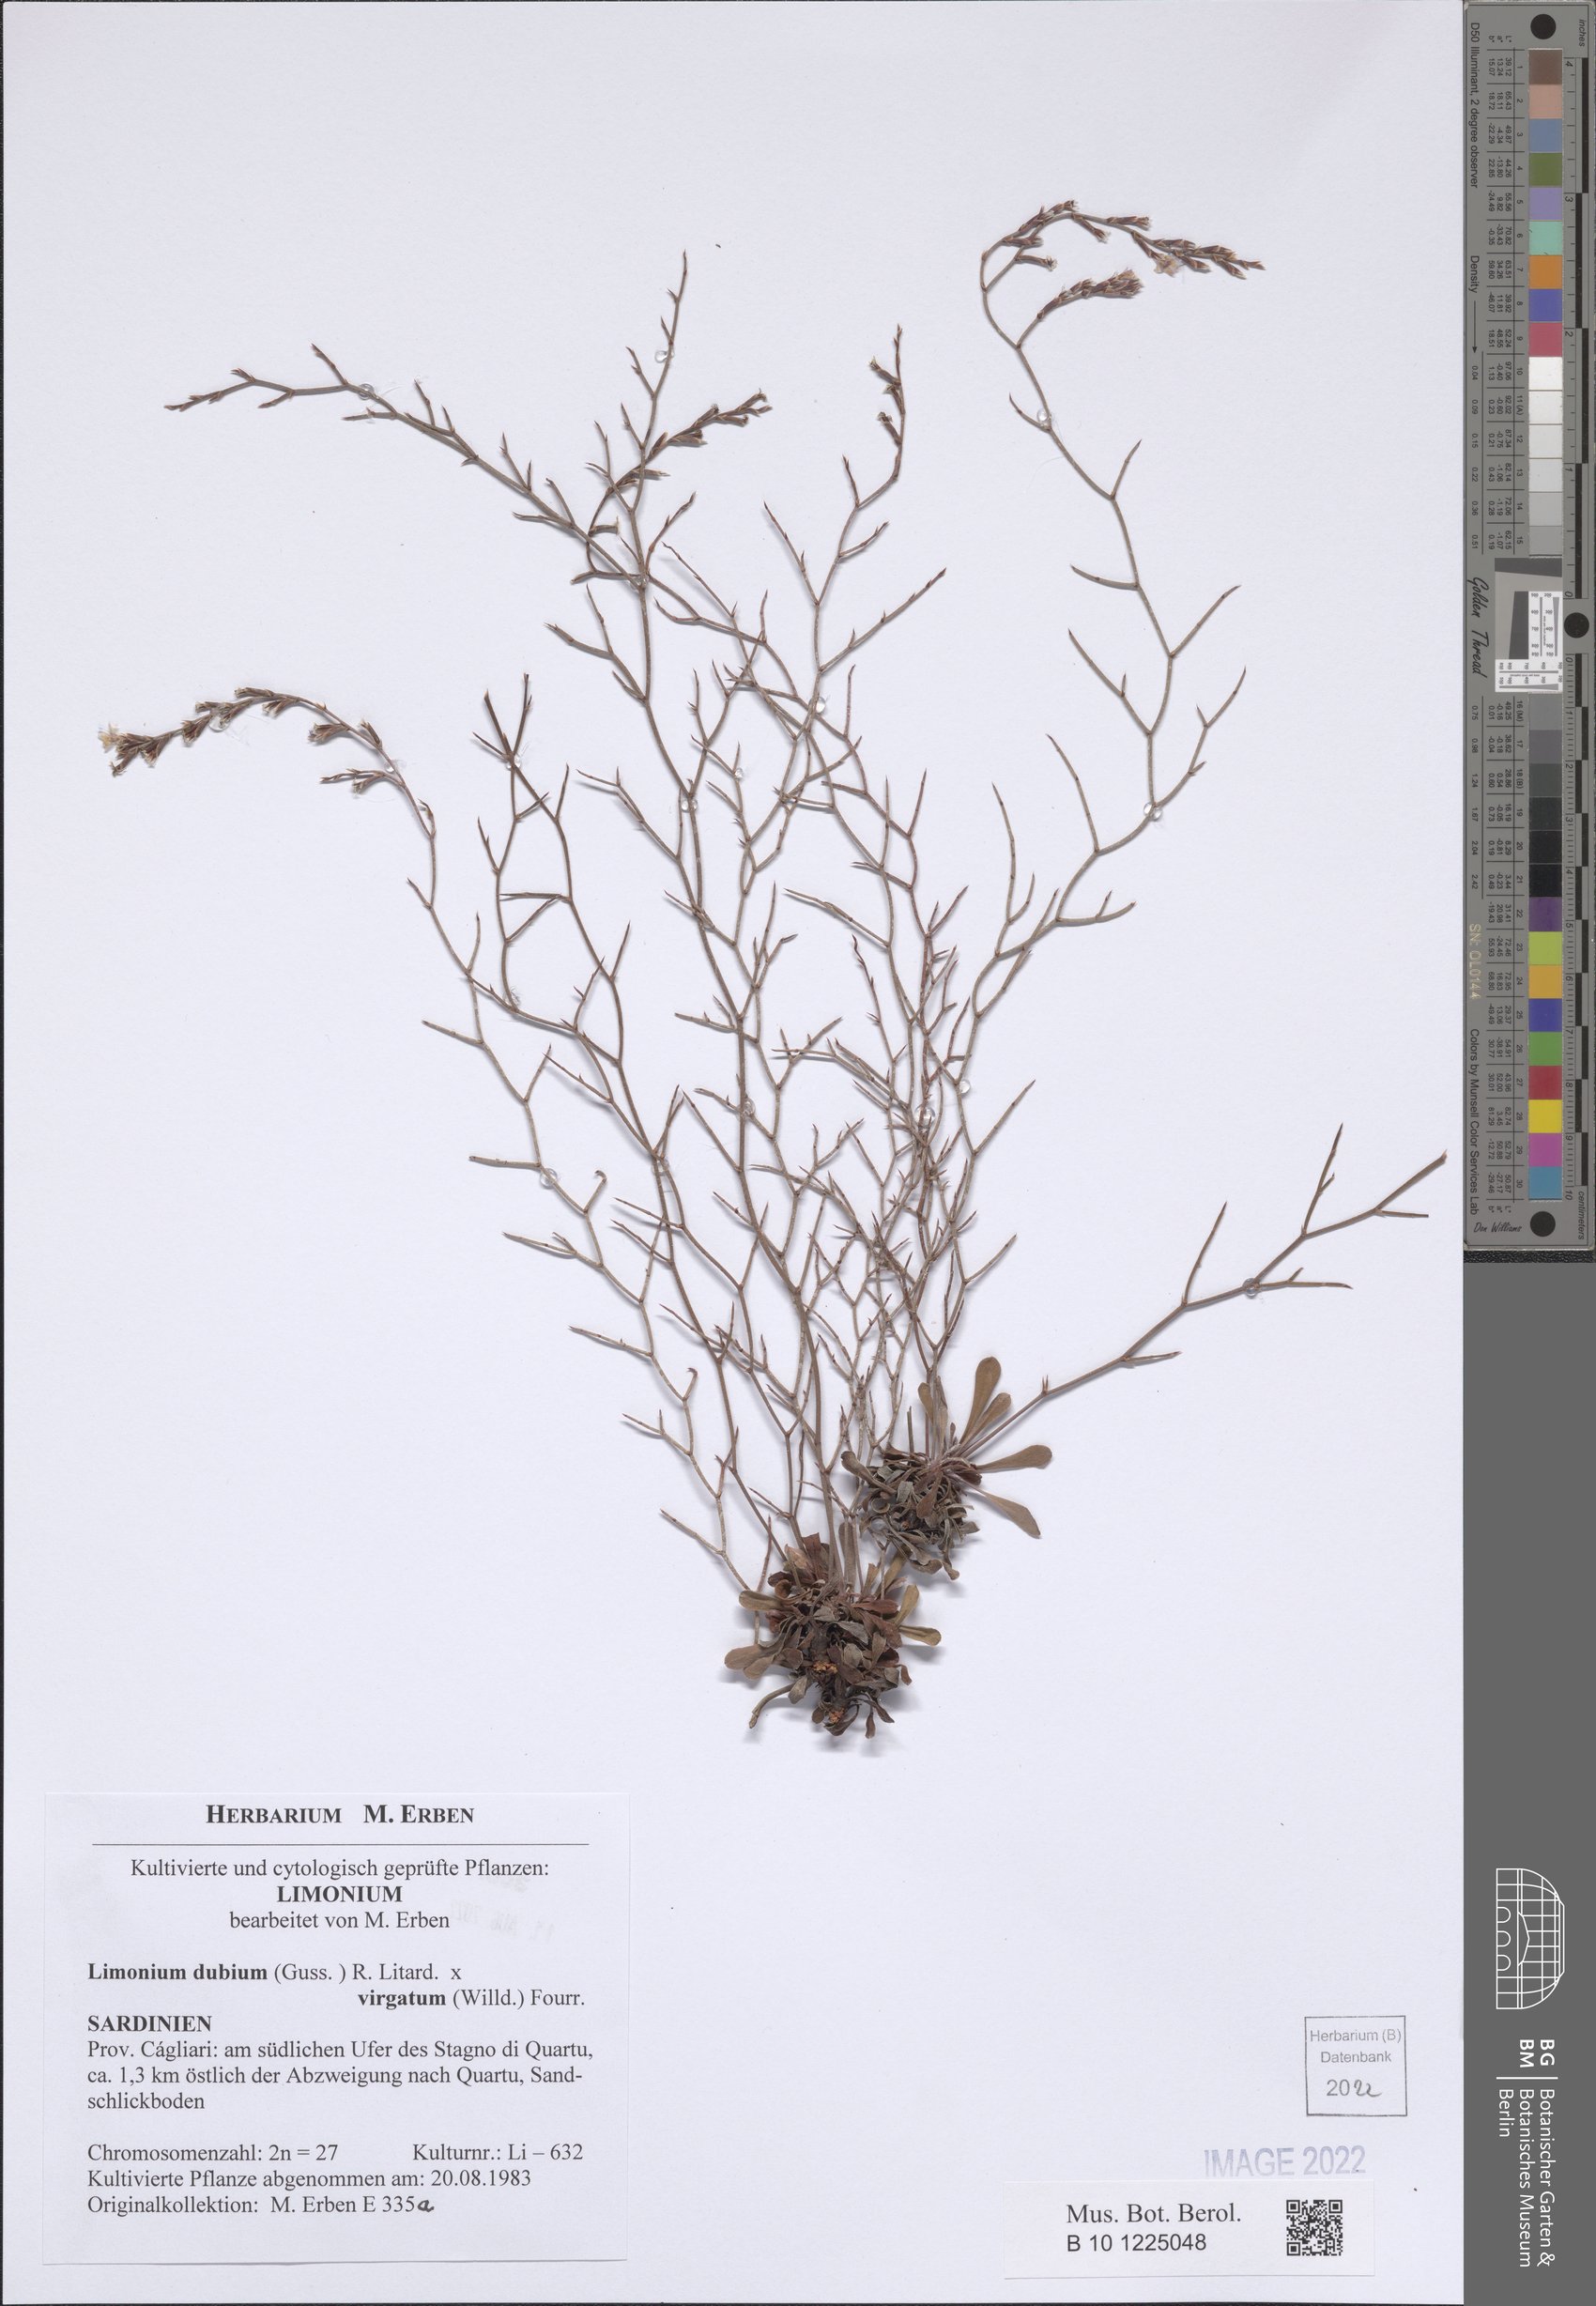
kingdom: Plantae
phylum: Tracheophyta
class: Magnoliopsida
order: Caryophyllales
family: Plumbaginaceae
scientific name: Plumbaginaceae
